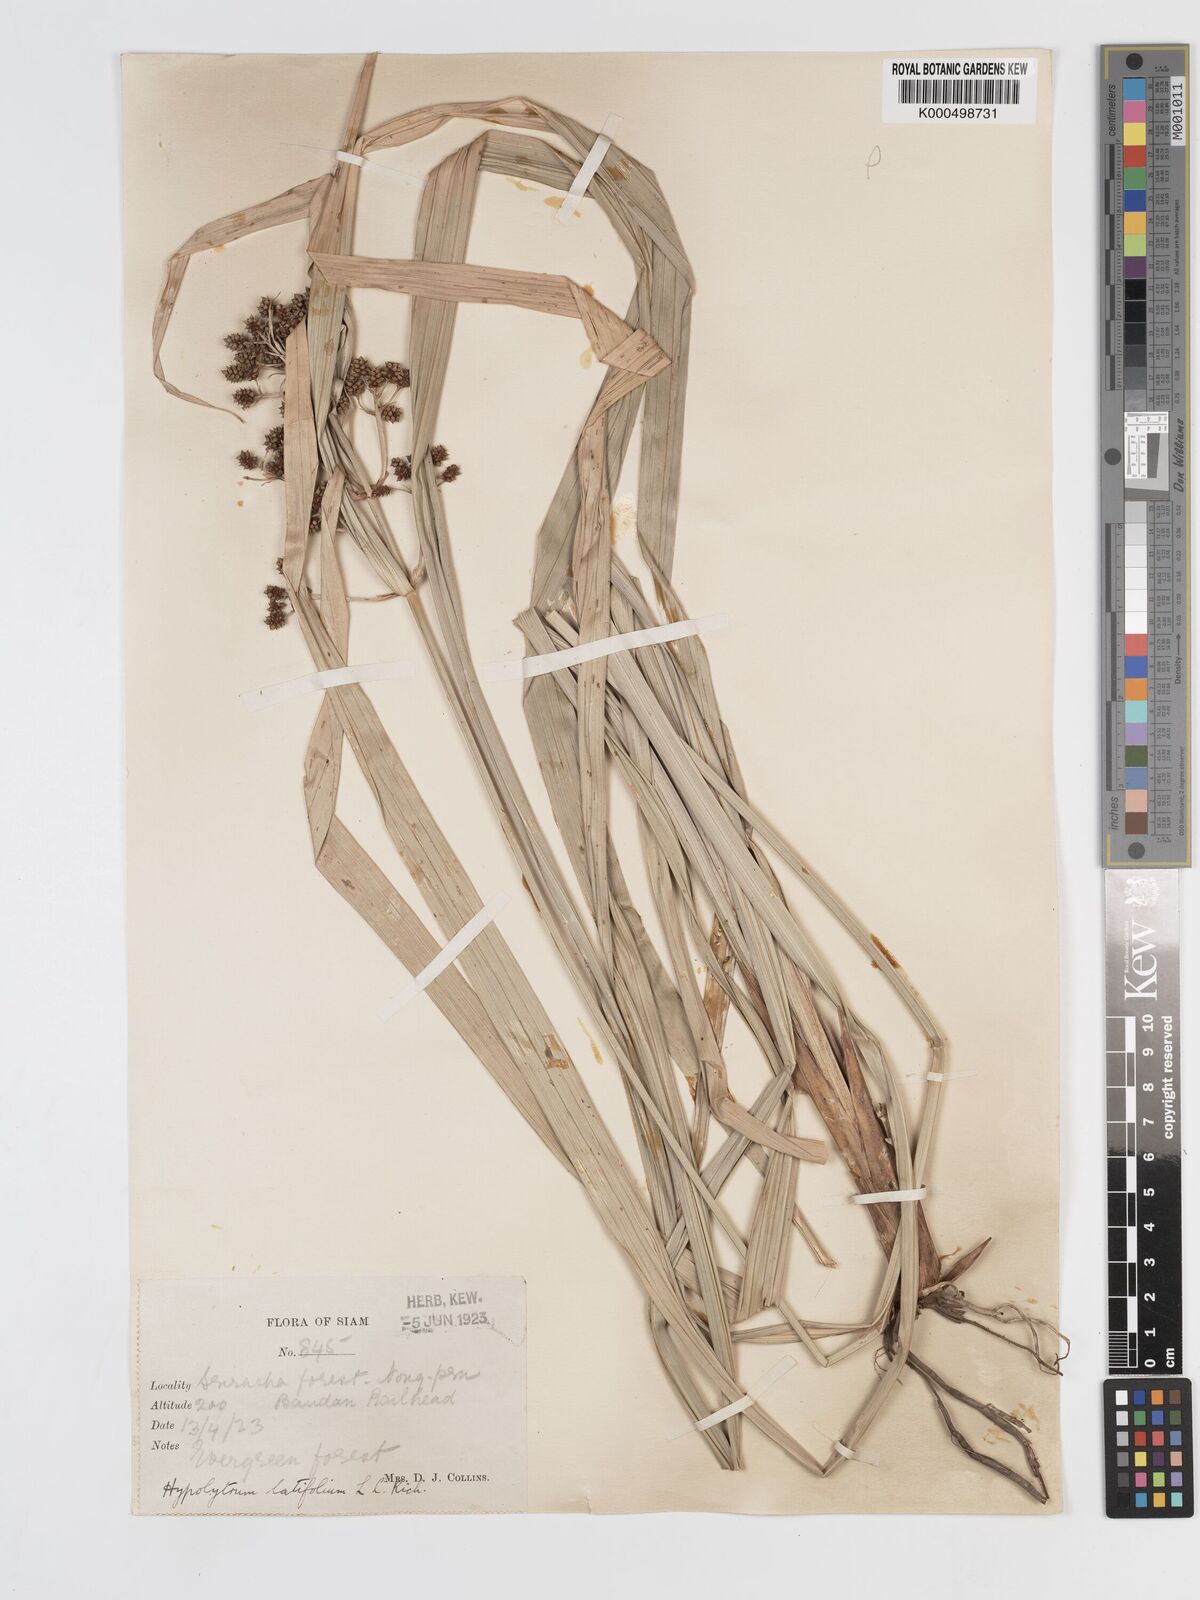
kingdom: Plantae
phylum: Tracheophyta
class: Liliopsida
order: Poales
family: Cyperaceae
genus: Hypolytrum
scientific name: Hypolytrum nemorum
